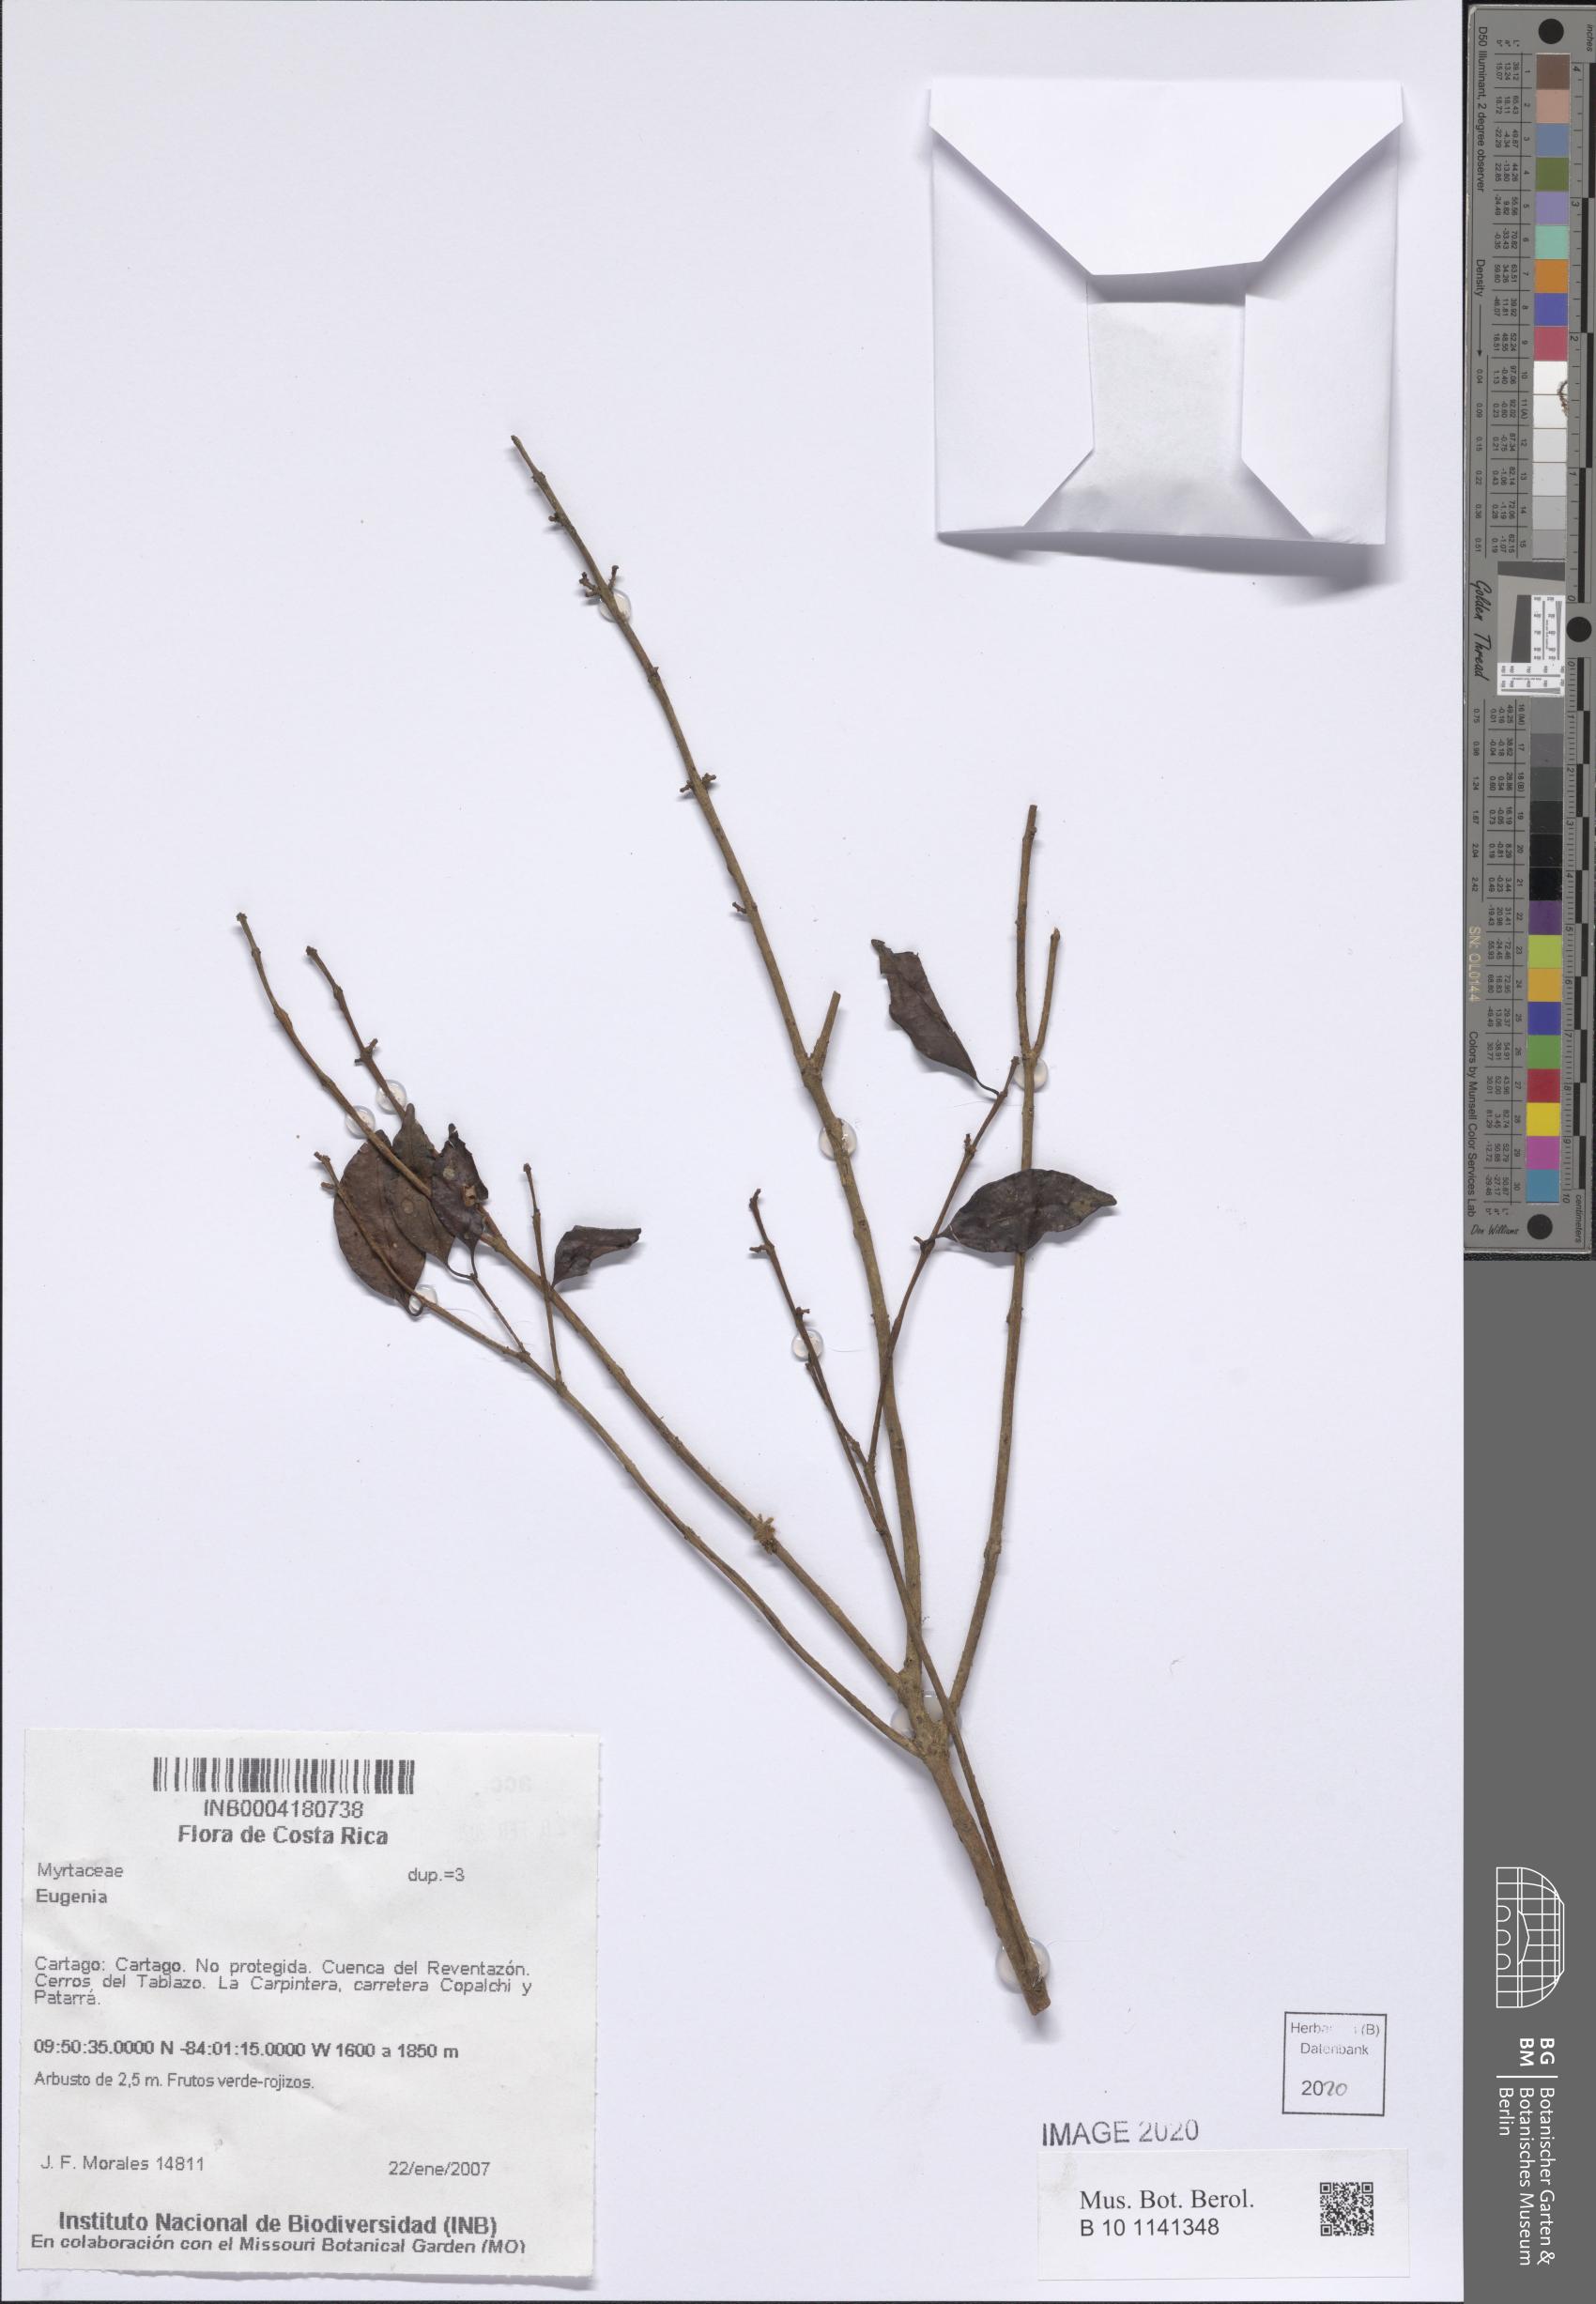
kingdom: Plantae
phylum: Tracheophyta
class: Magnoliopsida
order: Myrtales
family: Myrtaceae
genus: Eugenia
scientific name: Eugenia
